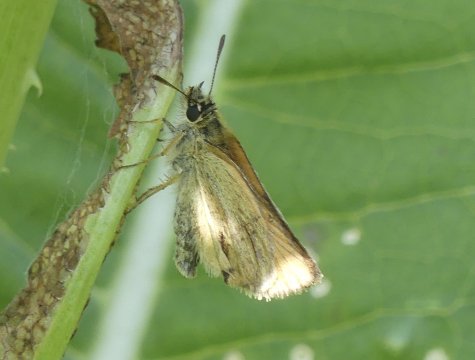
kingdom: Animalia
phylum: Arthropoda
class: Insecta
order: Lepidoptera
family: Hesperiidae
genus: Thymelicus
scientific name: Thymelicus lineola
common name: European Skipper
